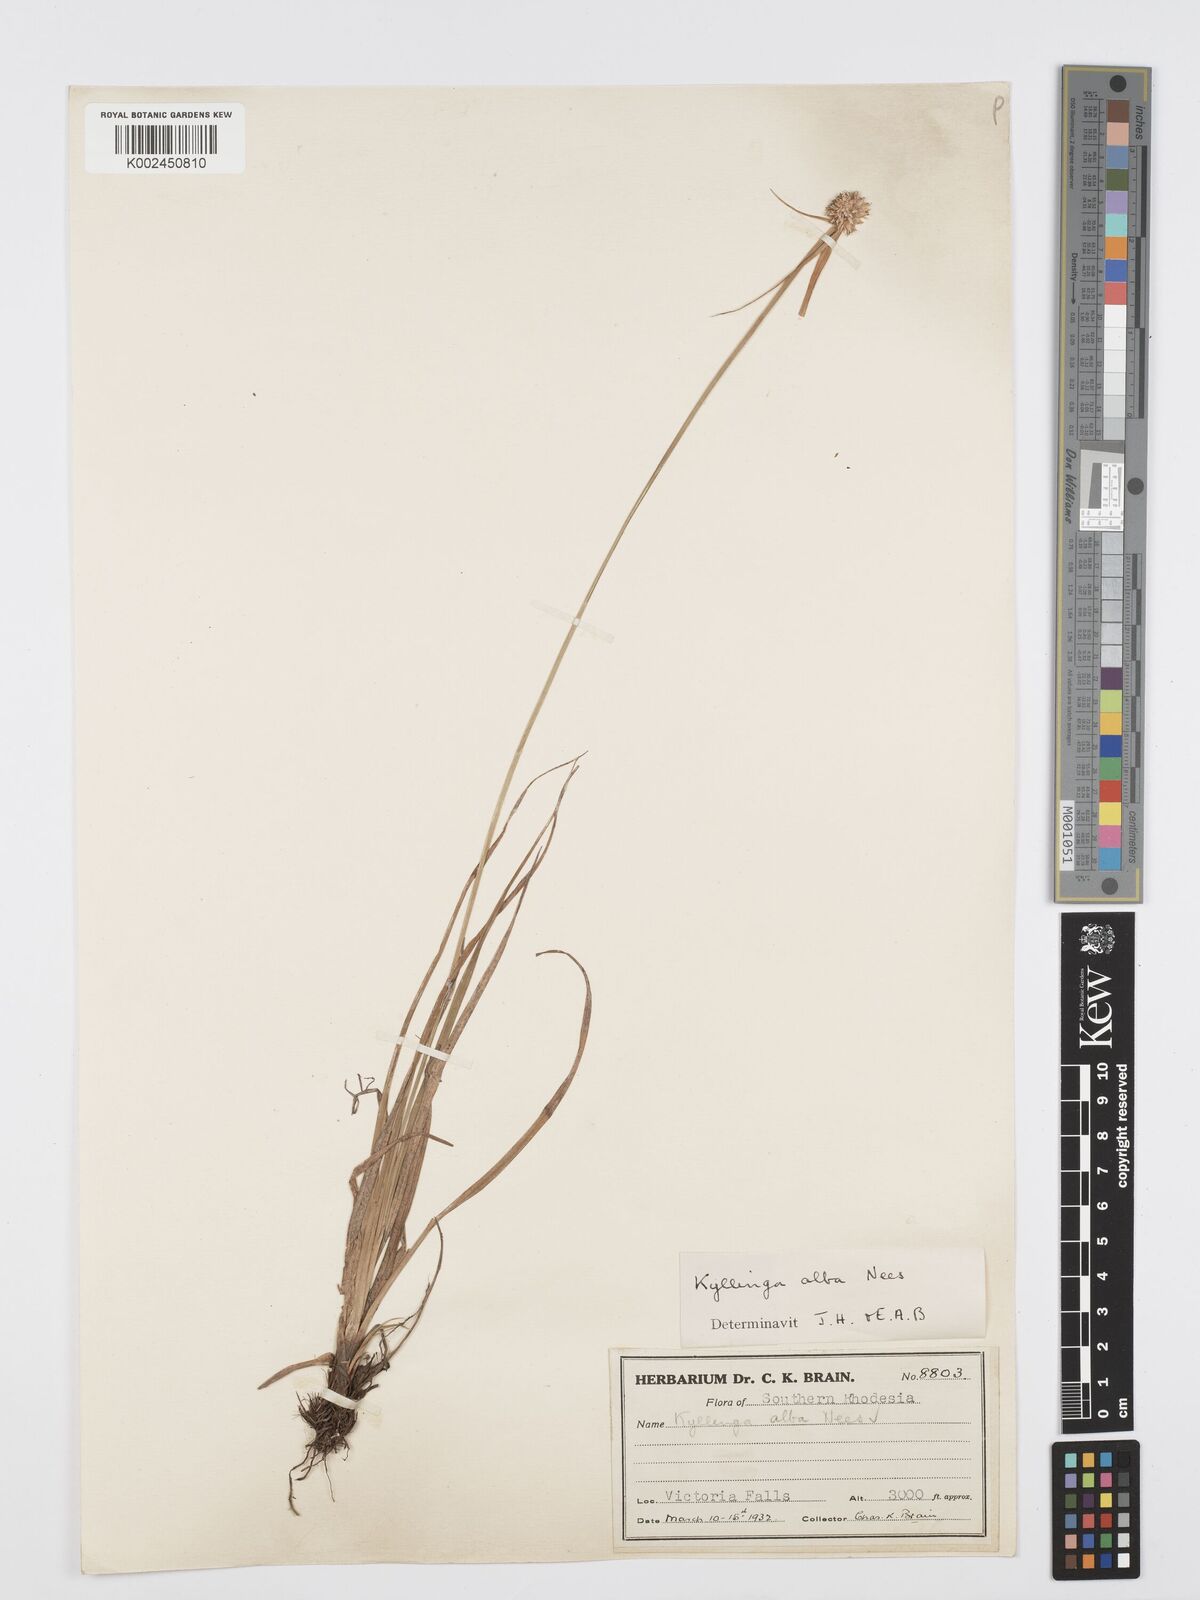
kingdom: Plantae
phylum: Tracheophyta
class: Liliopsida
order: Poales
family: Cyperaceae
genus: Cyperus
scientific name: Cyperus
